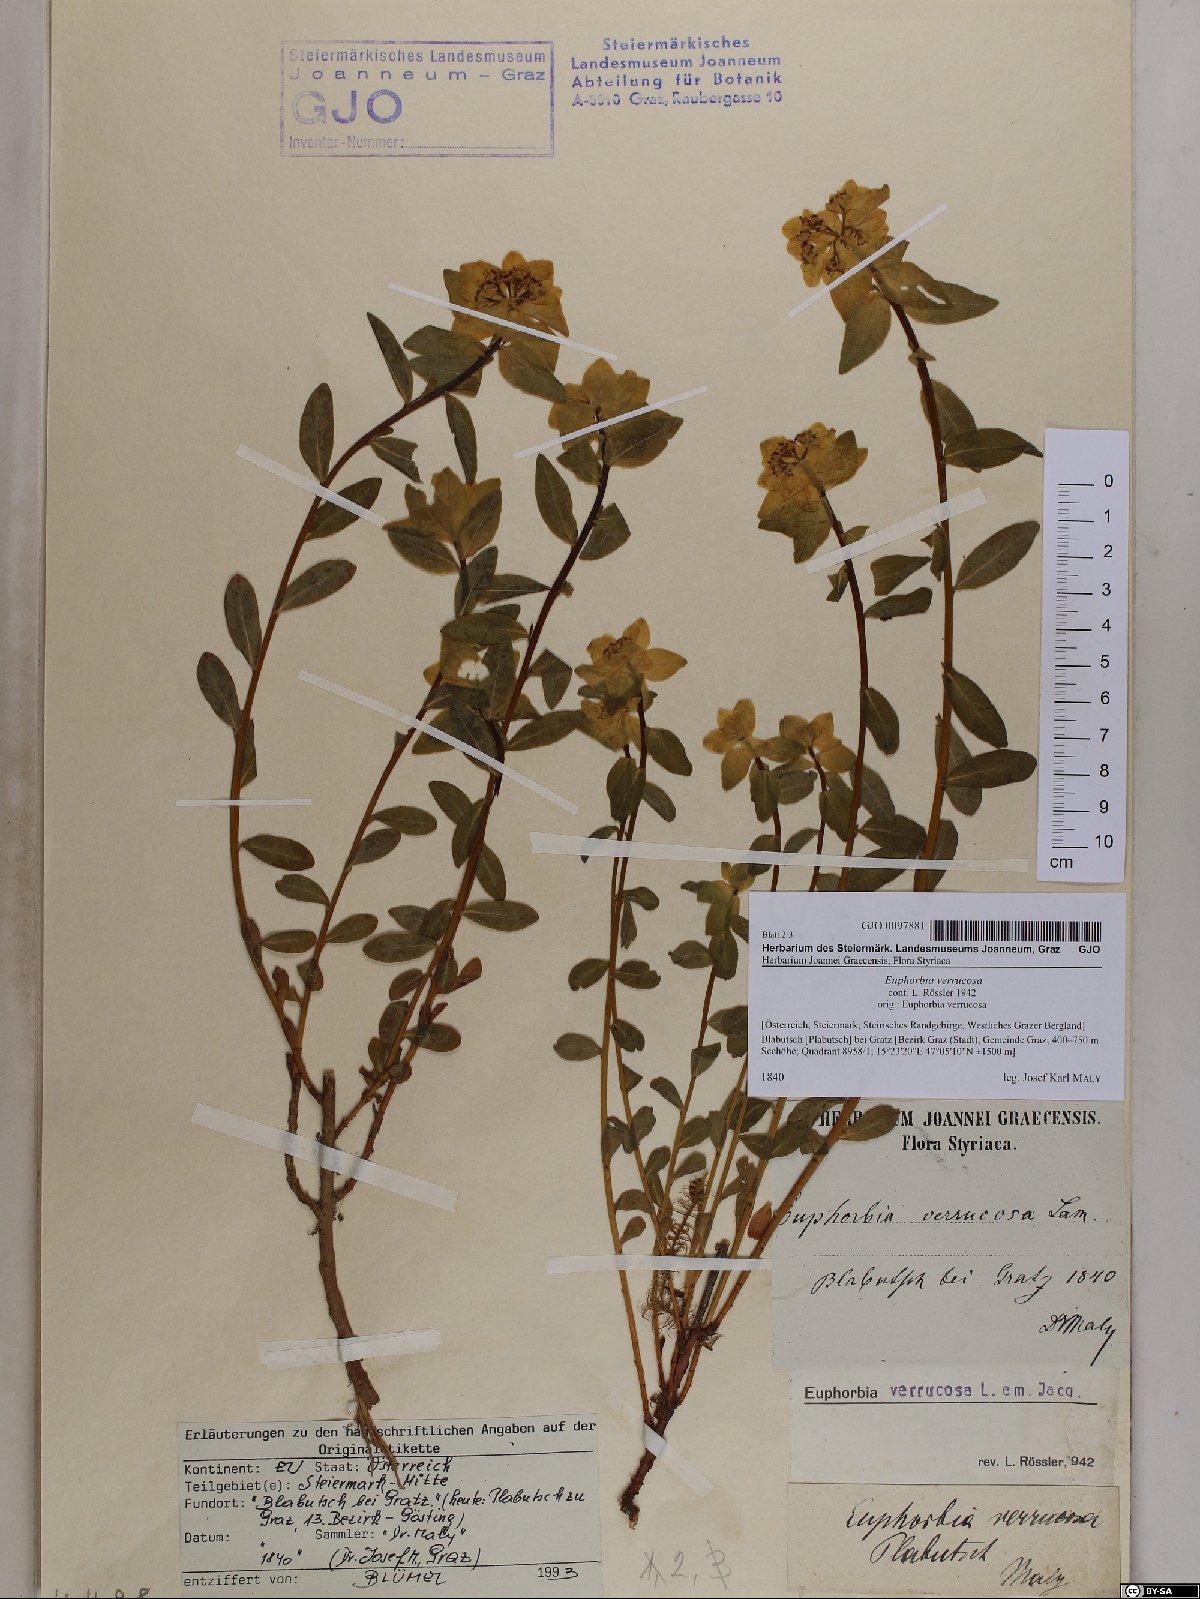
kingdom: Plantae
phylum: Tracheophyta
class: Magnoliopsida
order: Malpighiales
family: Euphorbiaceae
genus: Euphorbia
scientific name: Euphorbia verrucosa
